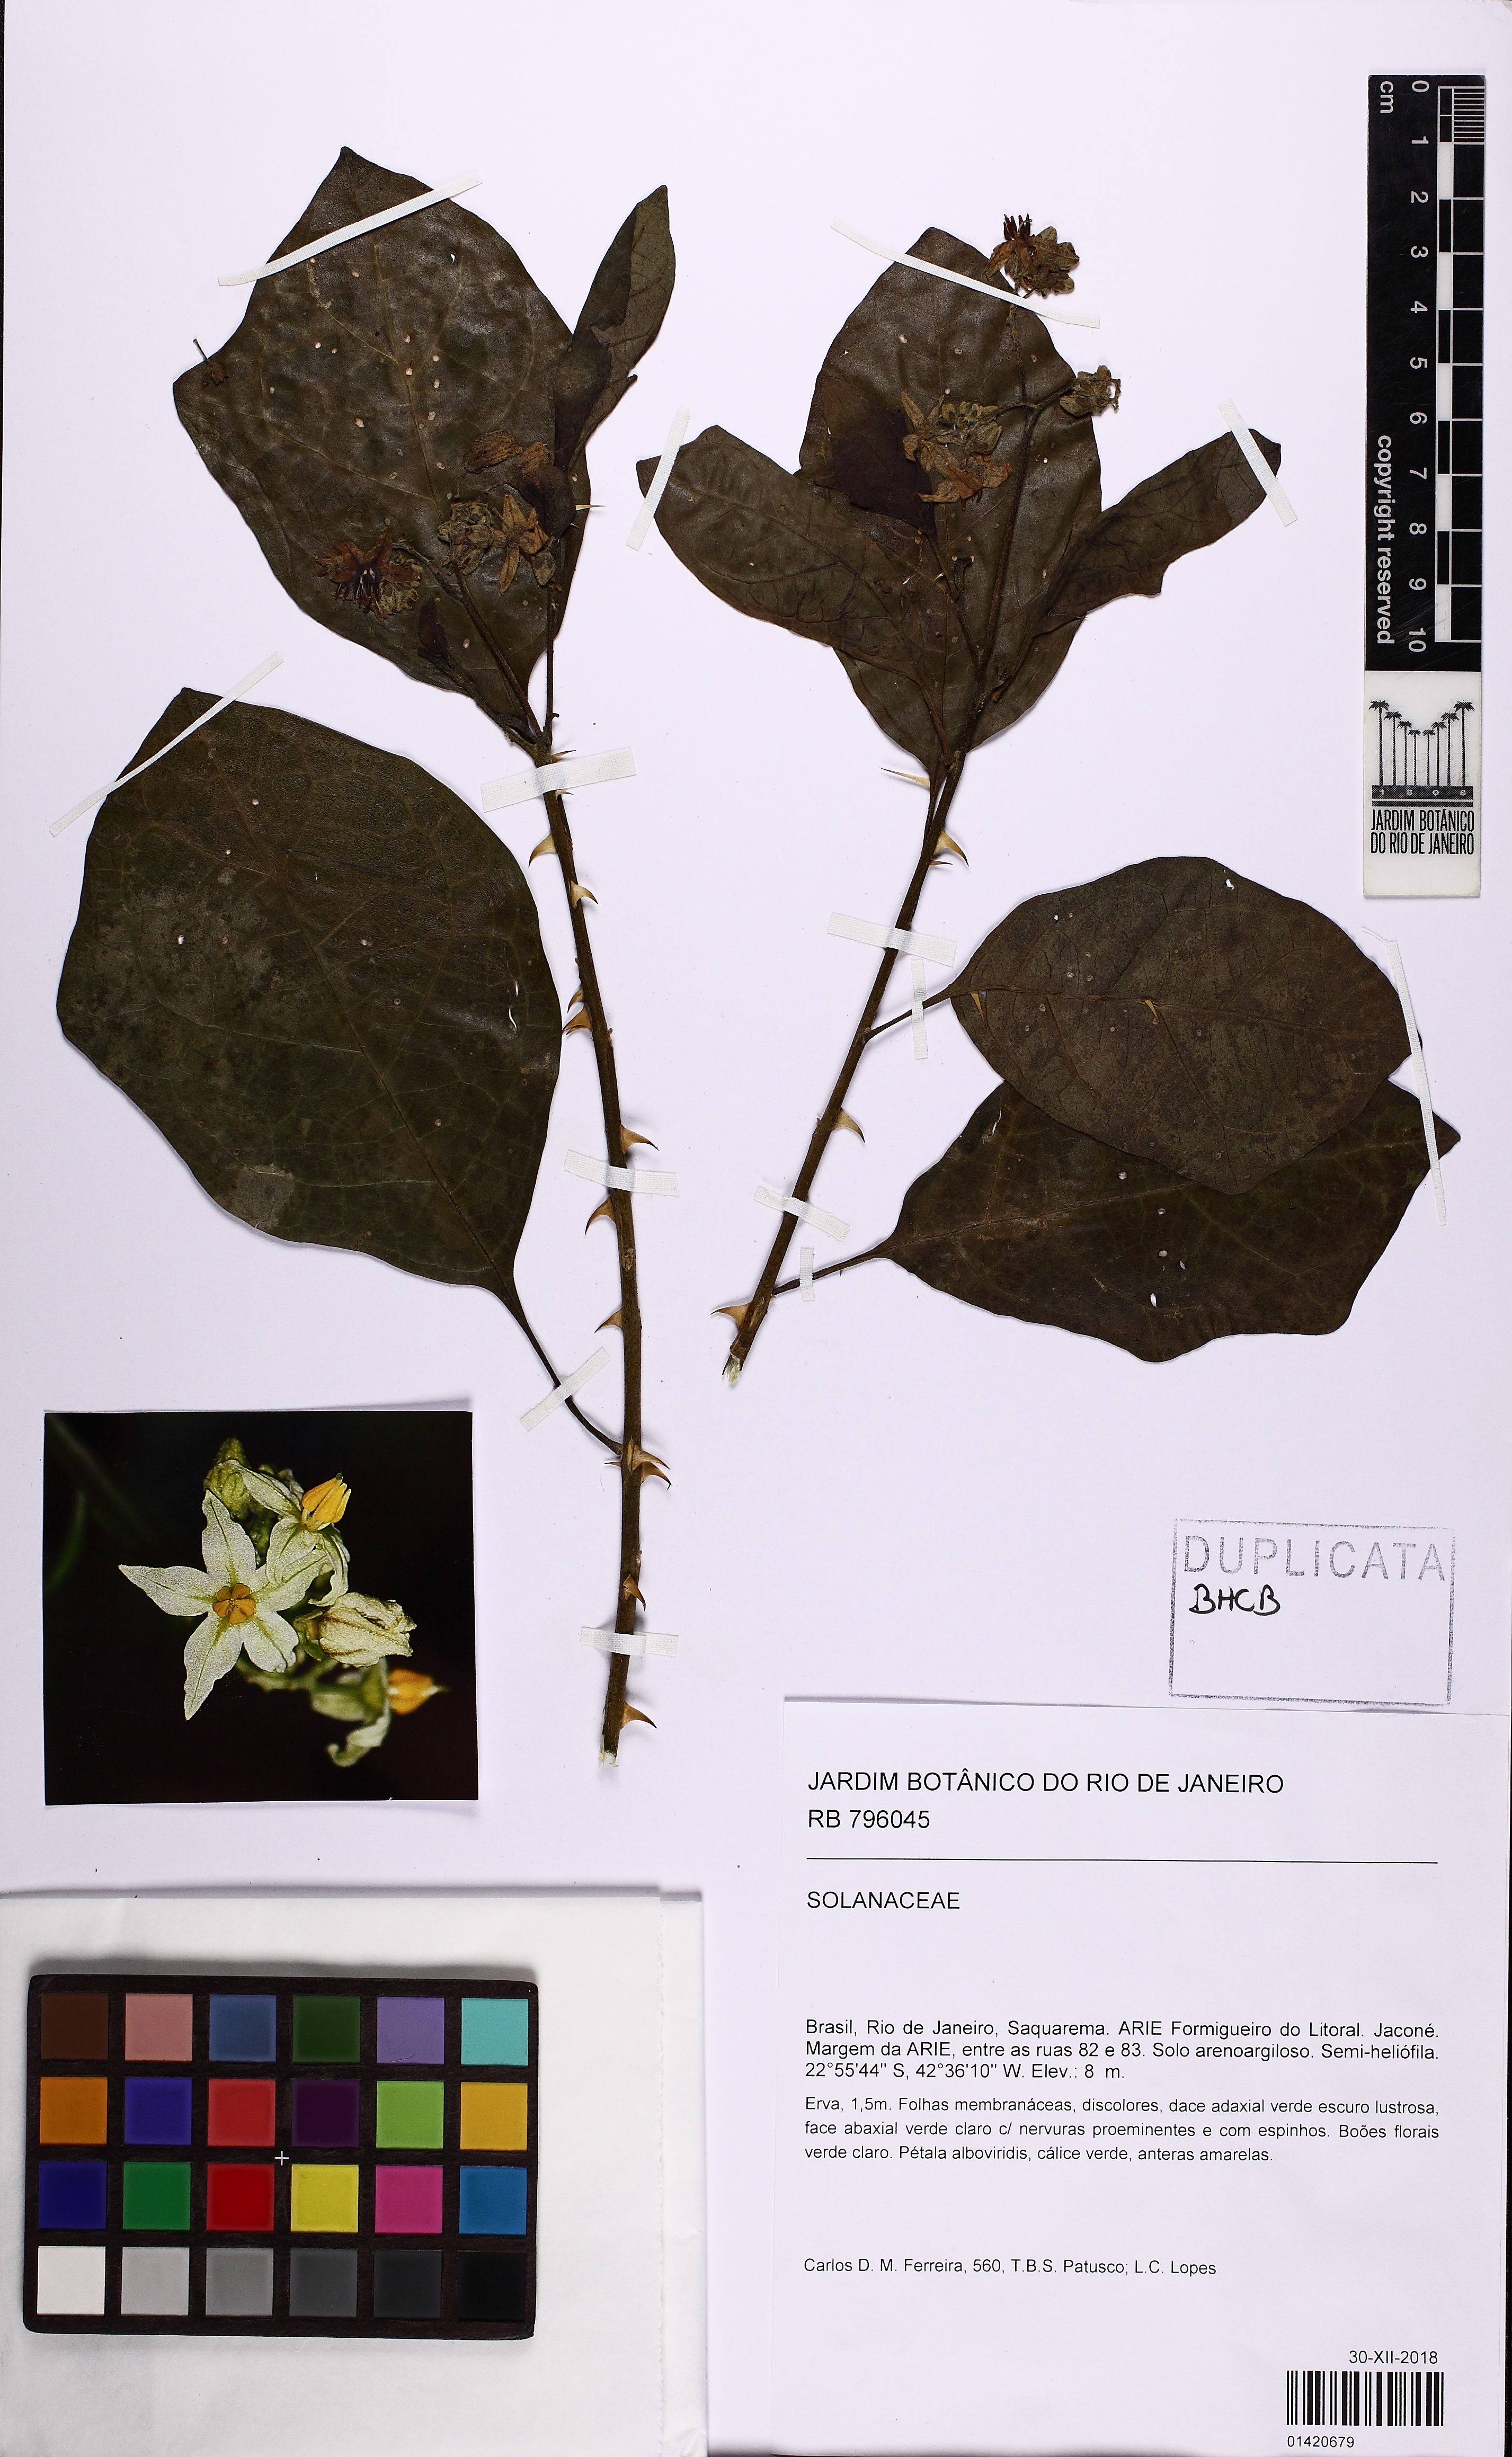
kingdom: Plantae
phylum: Tracheophyta
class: Magnoliopsida
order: Solanales
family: Solanaceae
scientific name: Solanaceae
